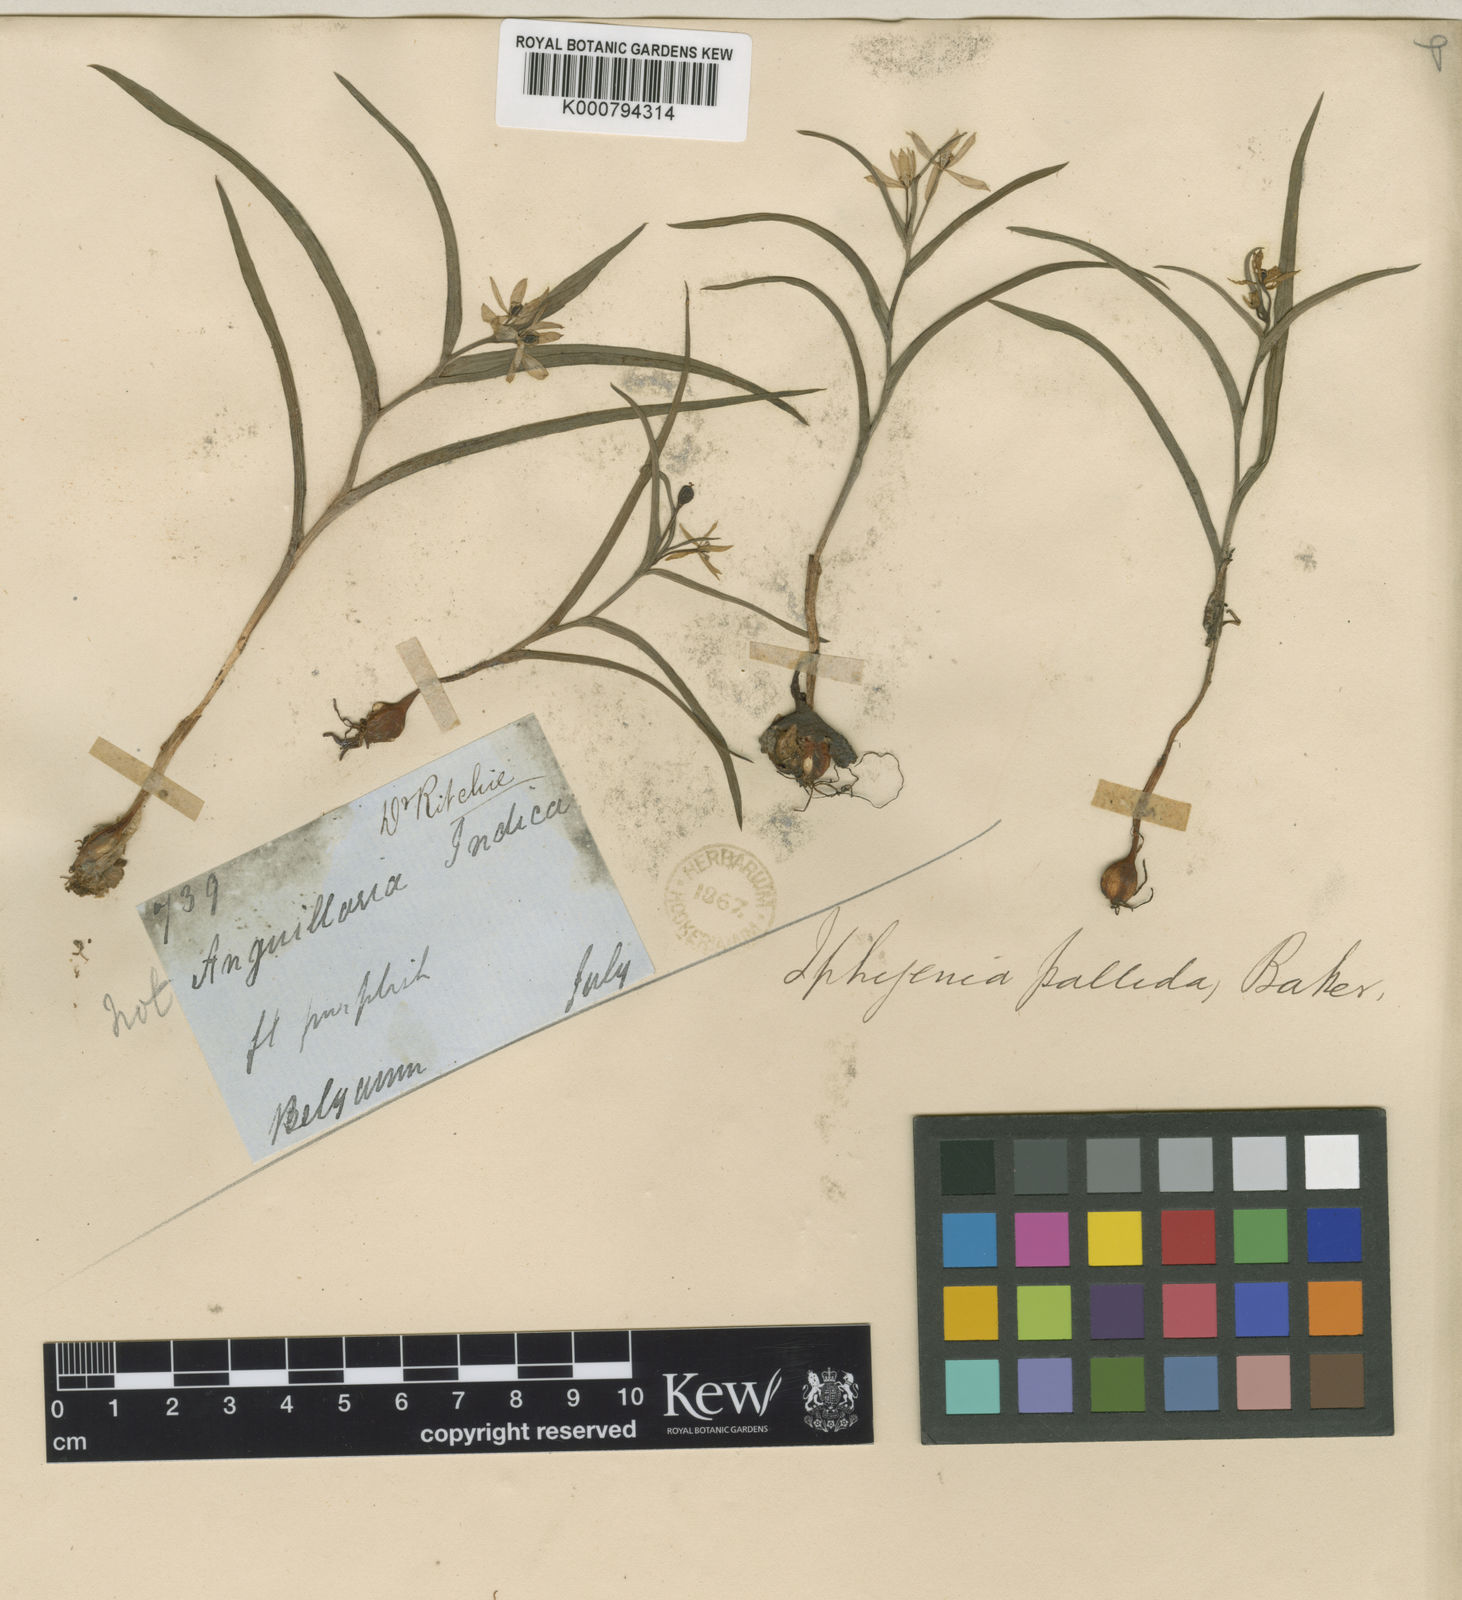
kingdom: Plantae
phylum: Tracheophyta
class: Liliopsida
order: Liliales
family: Colchicaceae
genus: Iphigenia
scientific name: Iphigenia pallida
